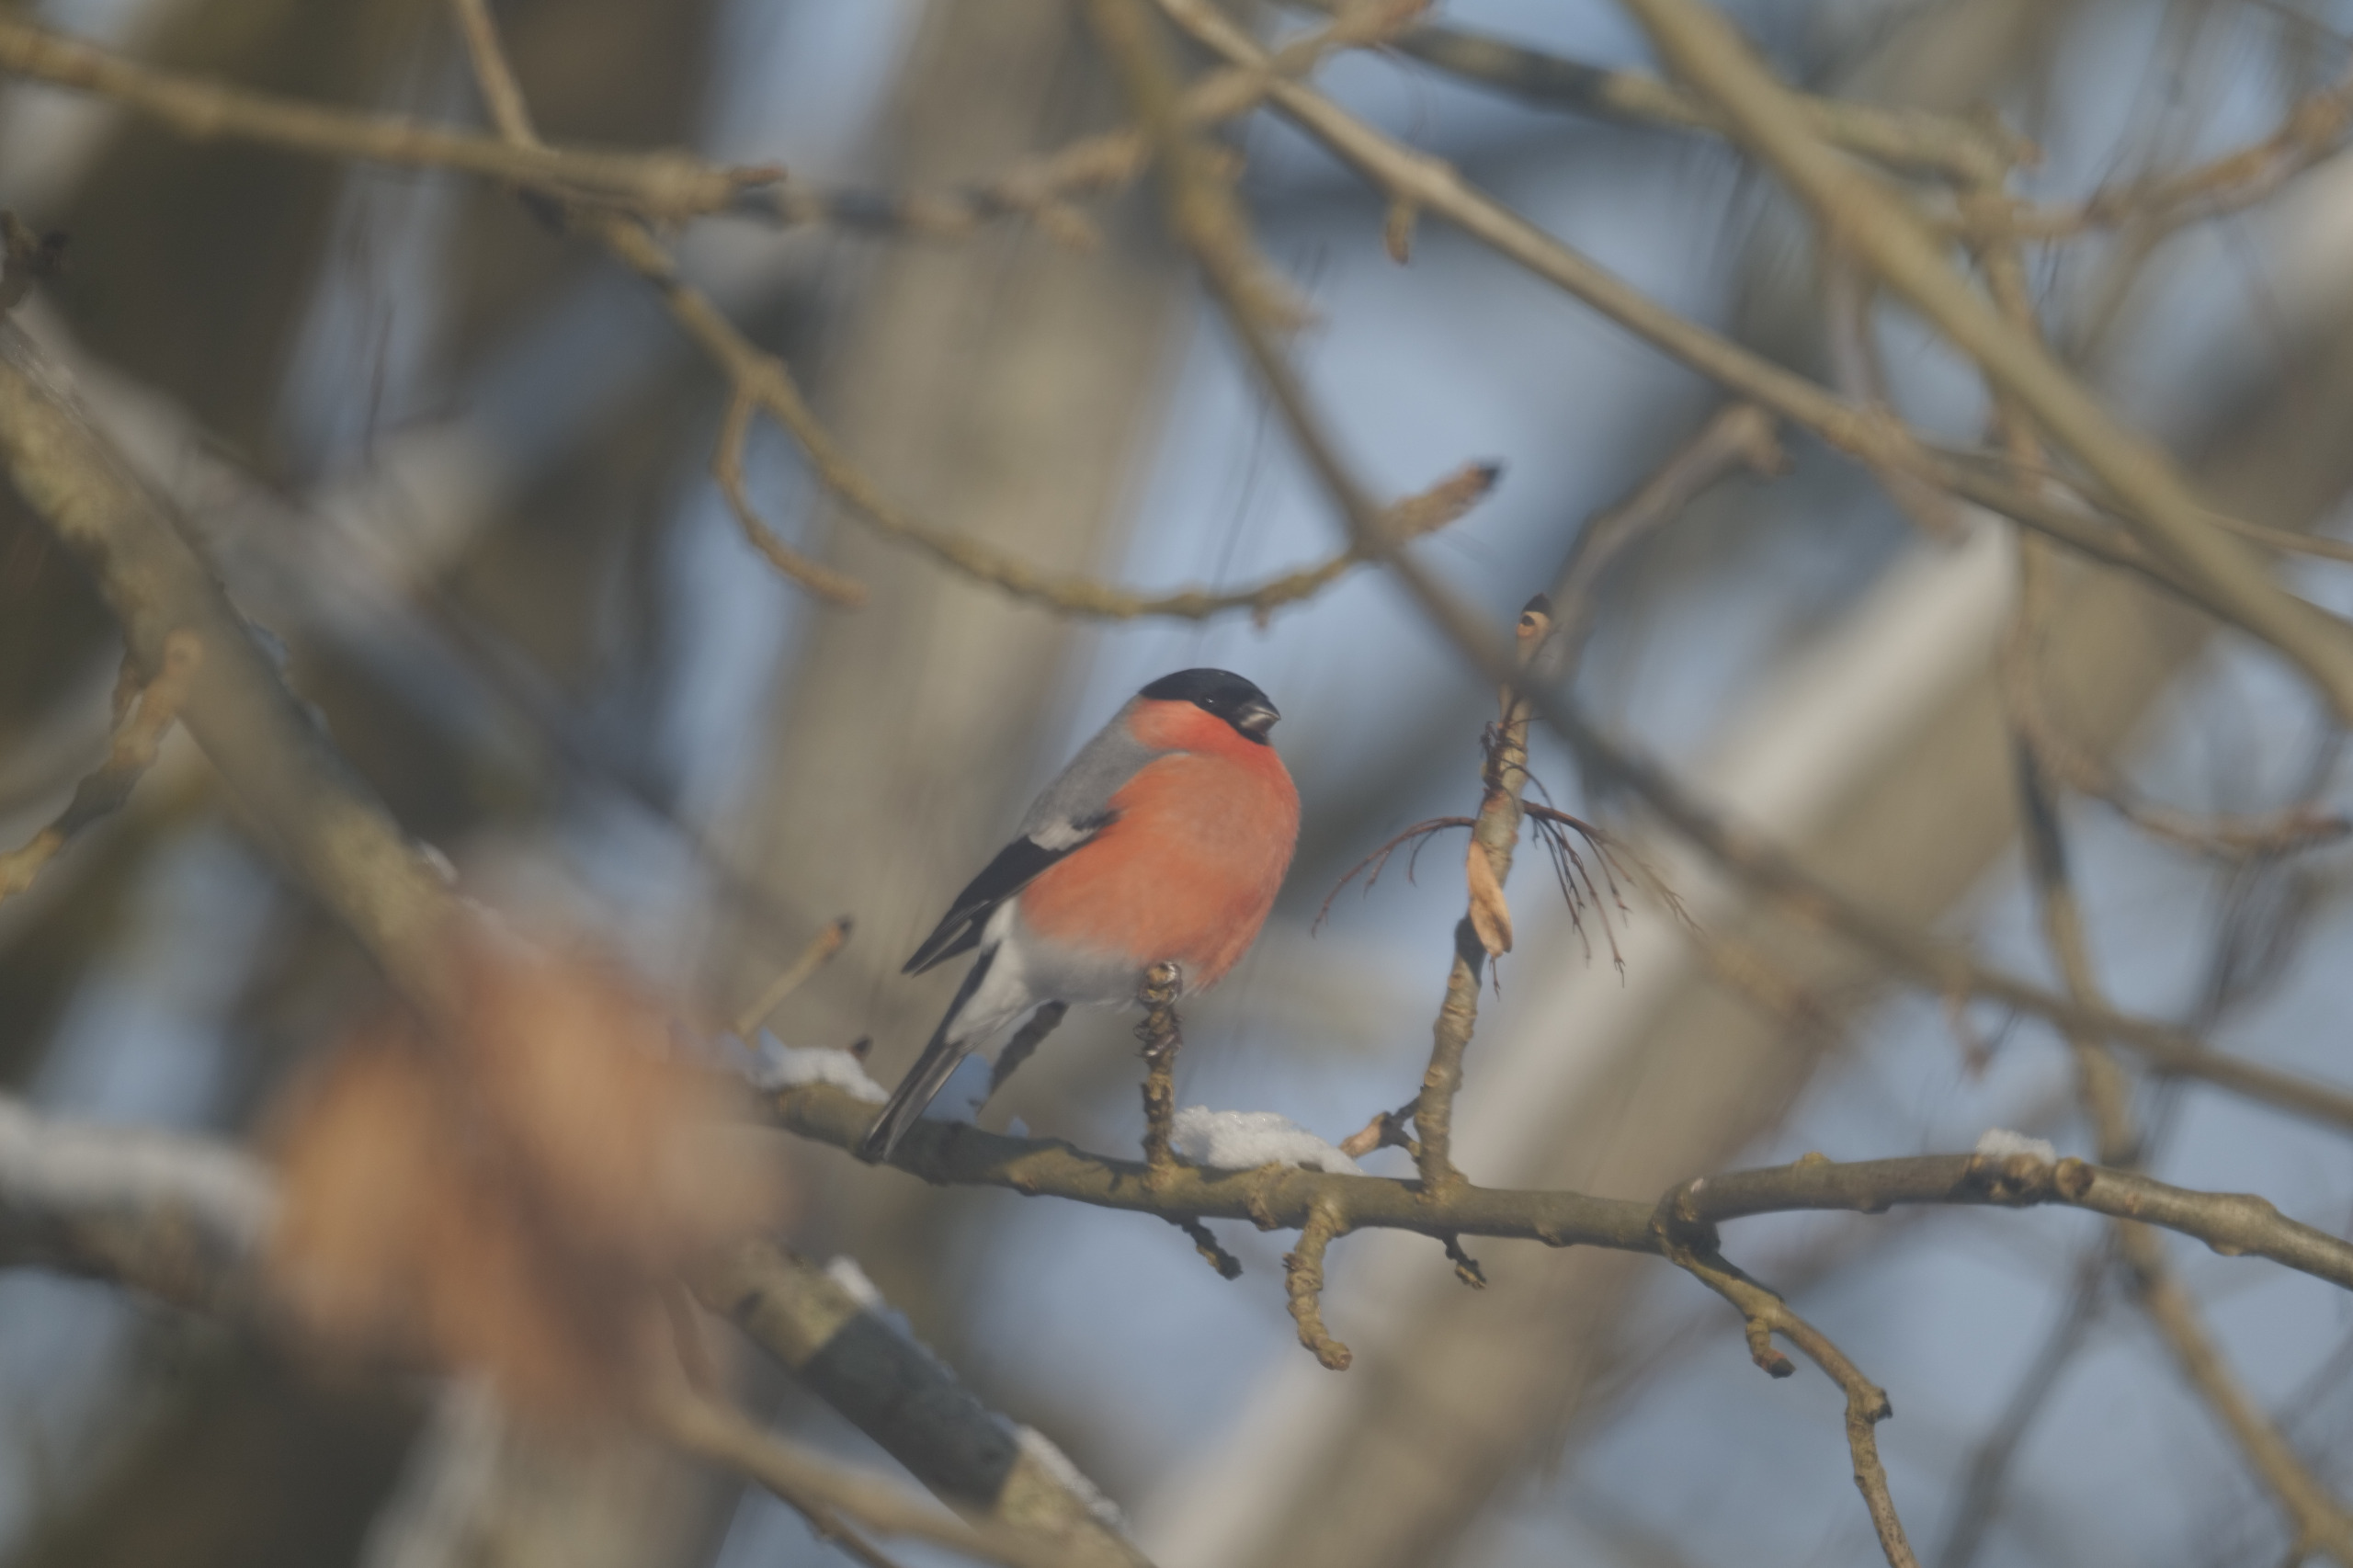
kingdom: Animalia
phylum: Chordata
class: Aves
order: Passeriformes
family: Fringillidae
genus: Pyrrhula
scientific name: Pyrrhula pyrrhula
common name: Dompap
